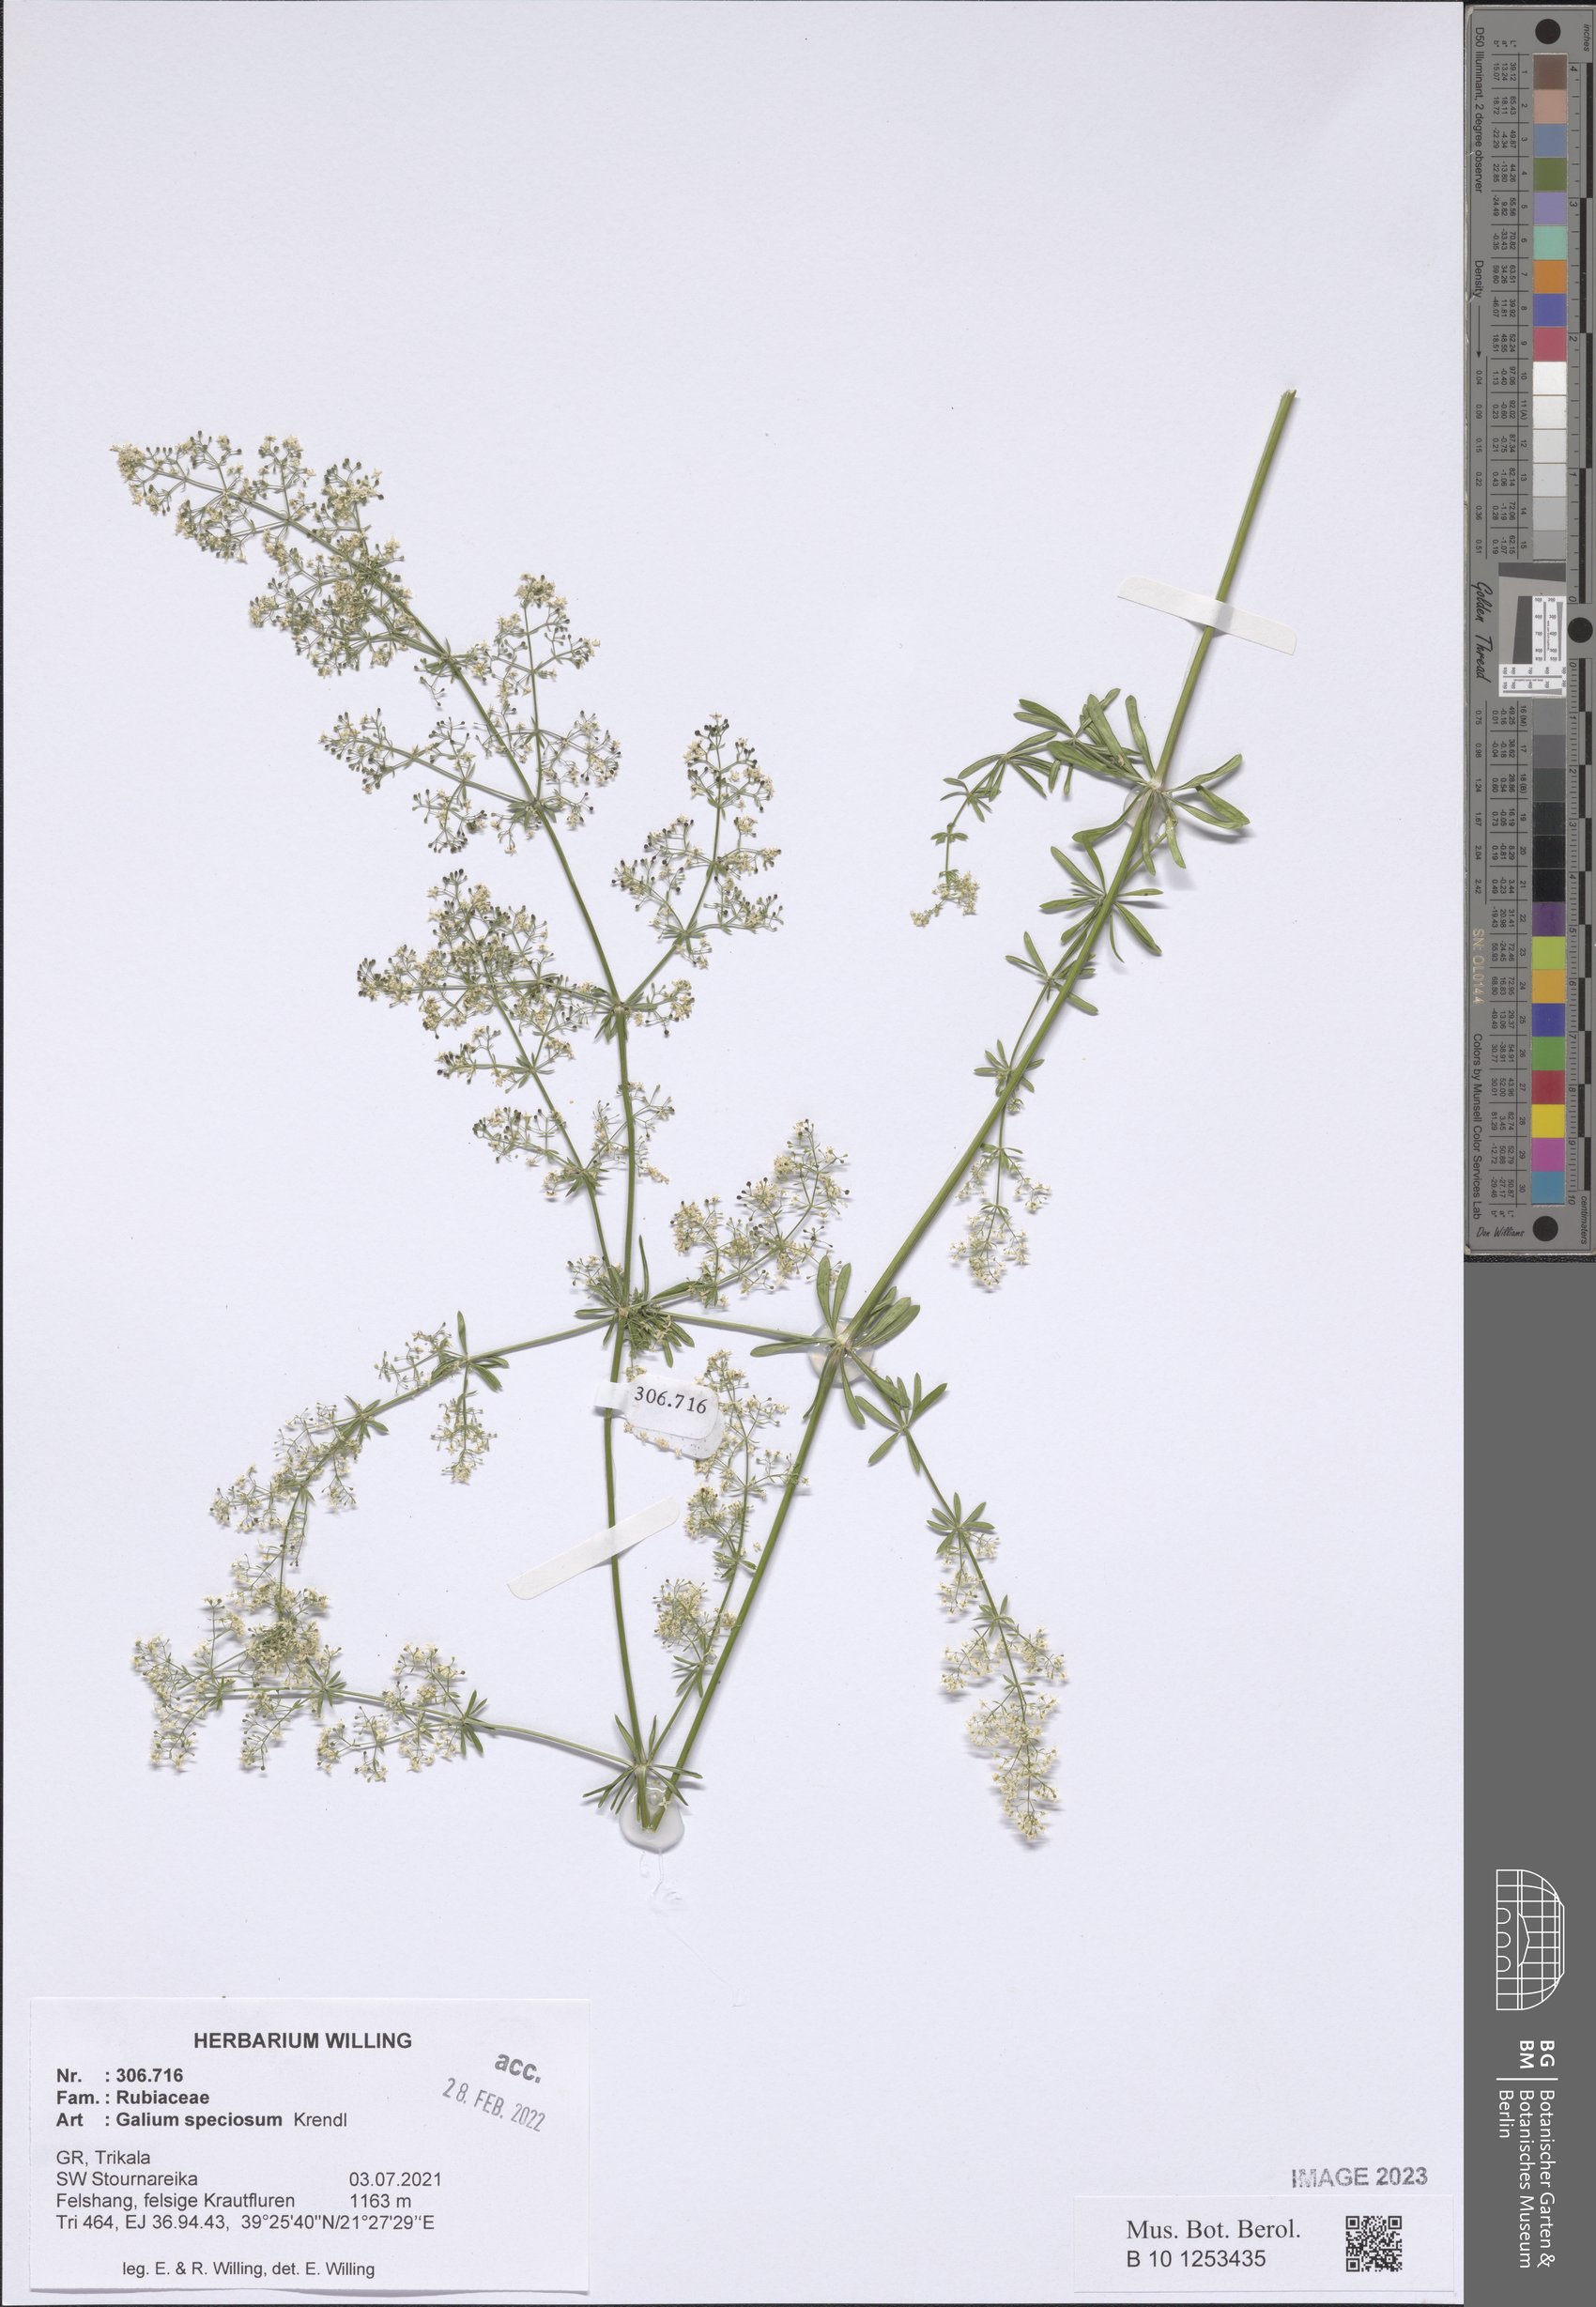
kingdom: Plantae
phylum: Tracheophyta
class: Magnoliopsida
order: Gentianales
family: Rubiaceae
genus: Galium
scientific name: Galium speciosum
